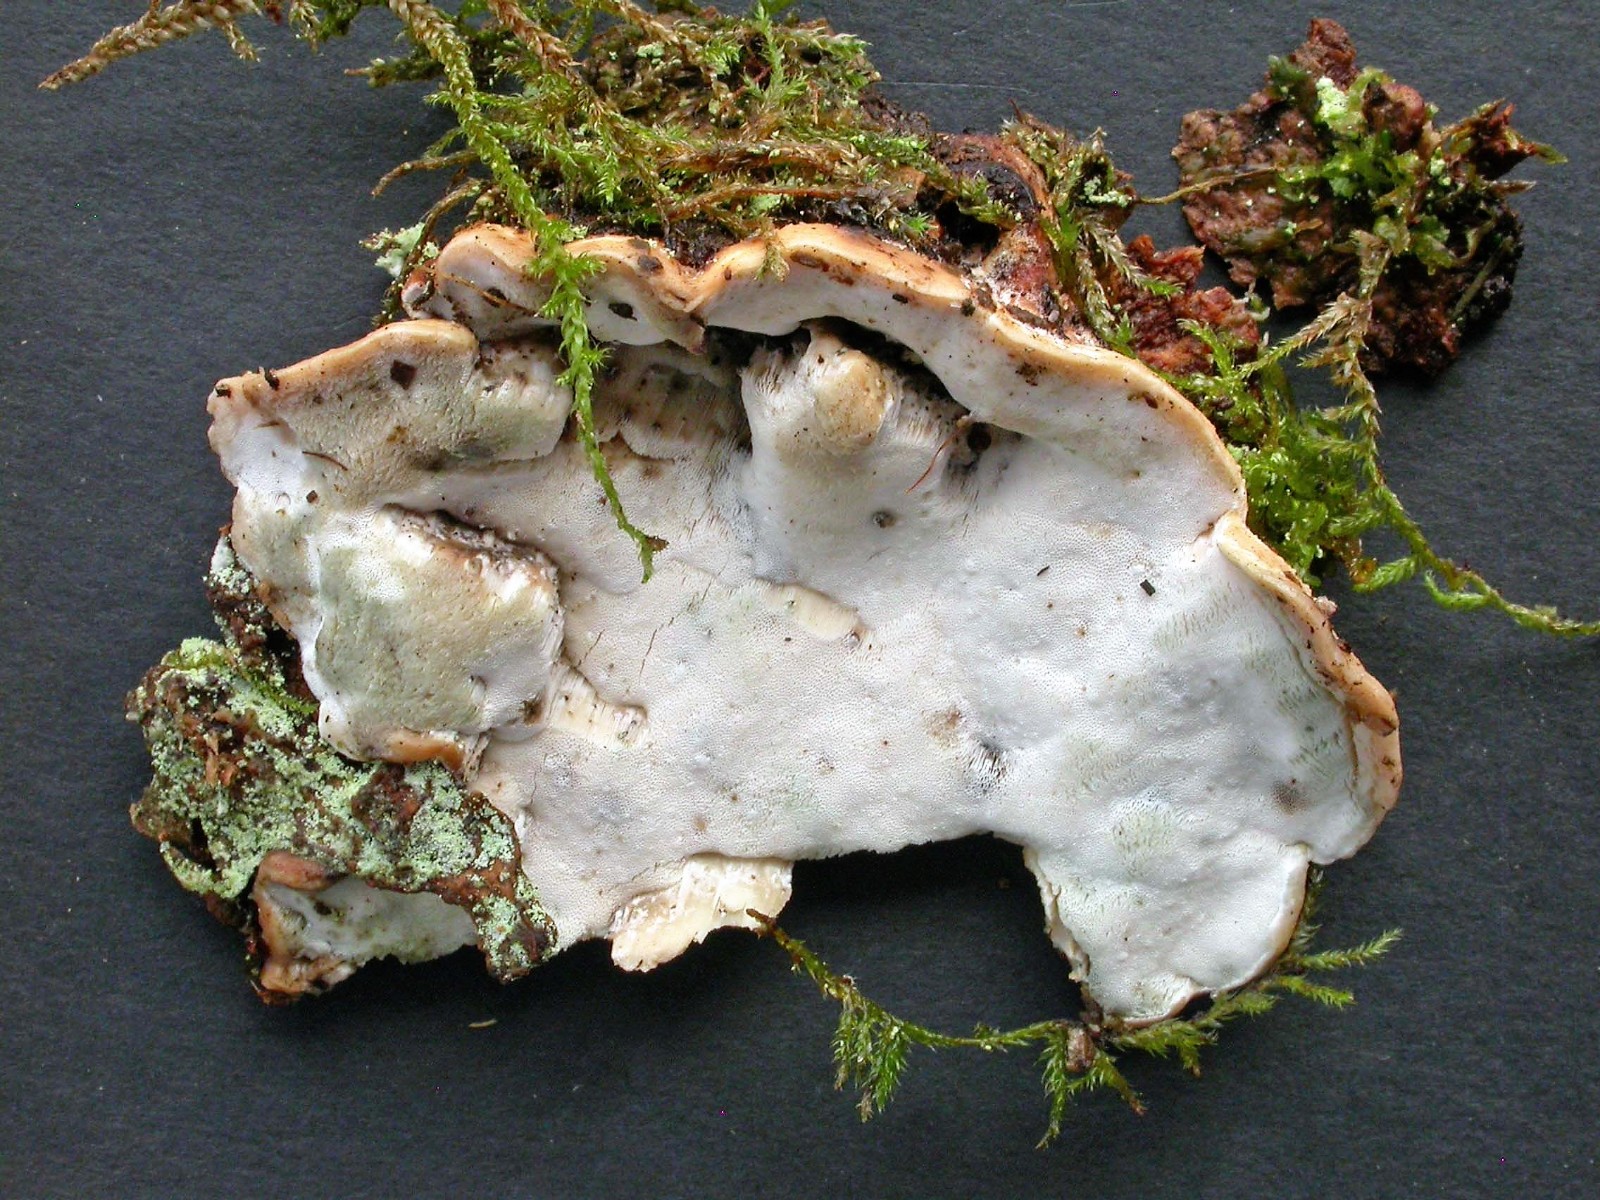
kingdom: Fungi
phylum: Basidiomycota
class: Agaricomycetes
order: Polyporales
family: Incrustoporiaceae
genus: Skeletocutis
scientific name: Skeletocutis nemoralis
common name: stor krystalporesvamp
